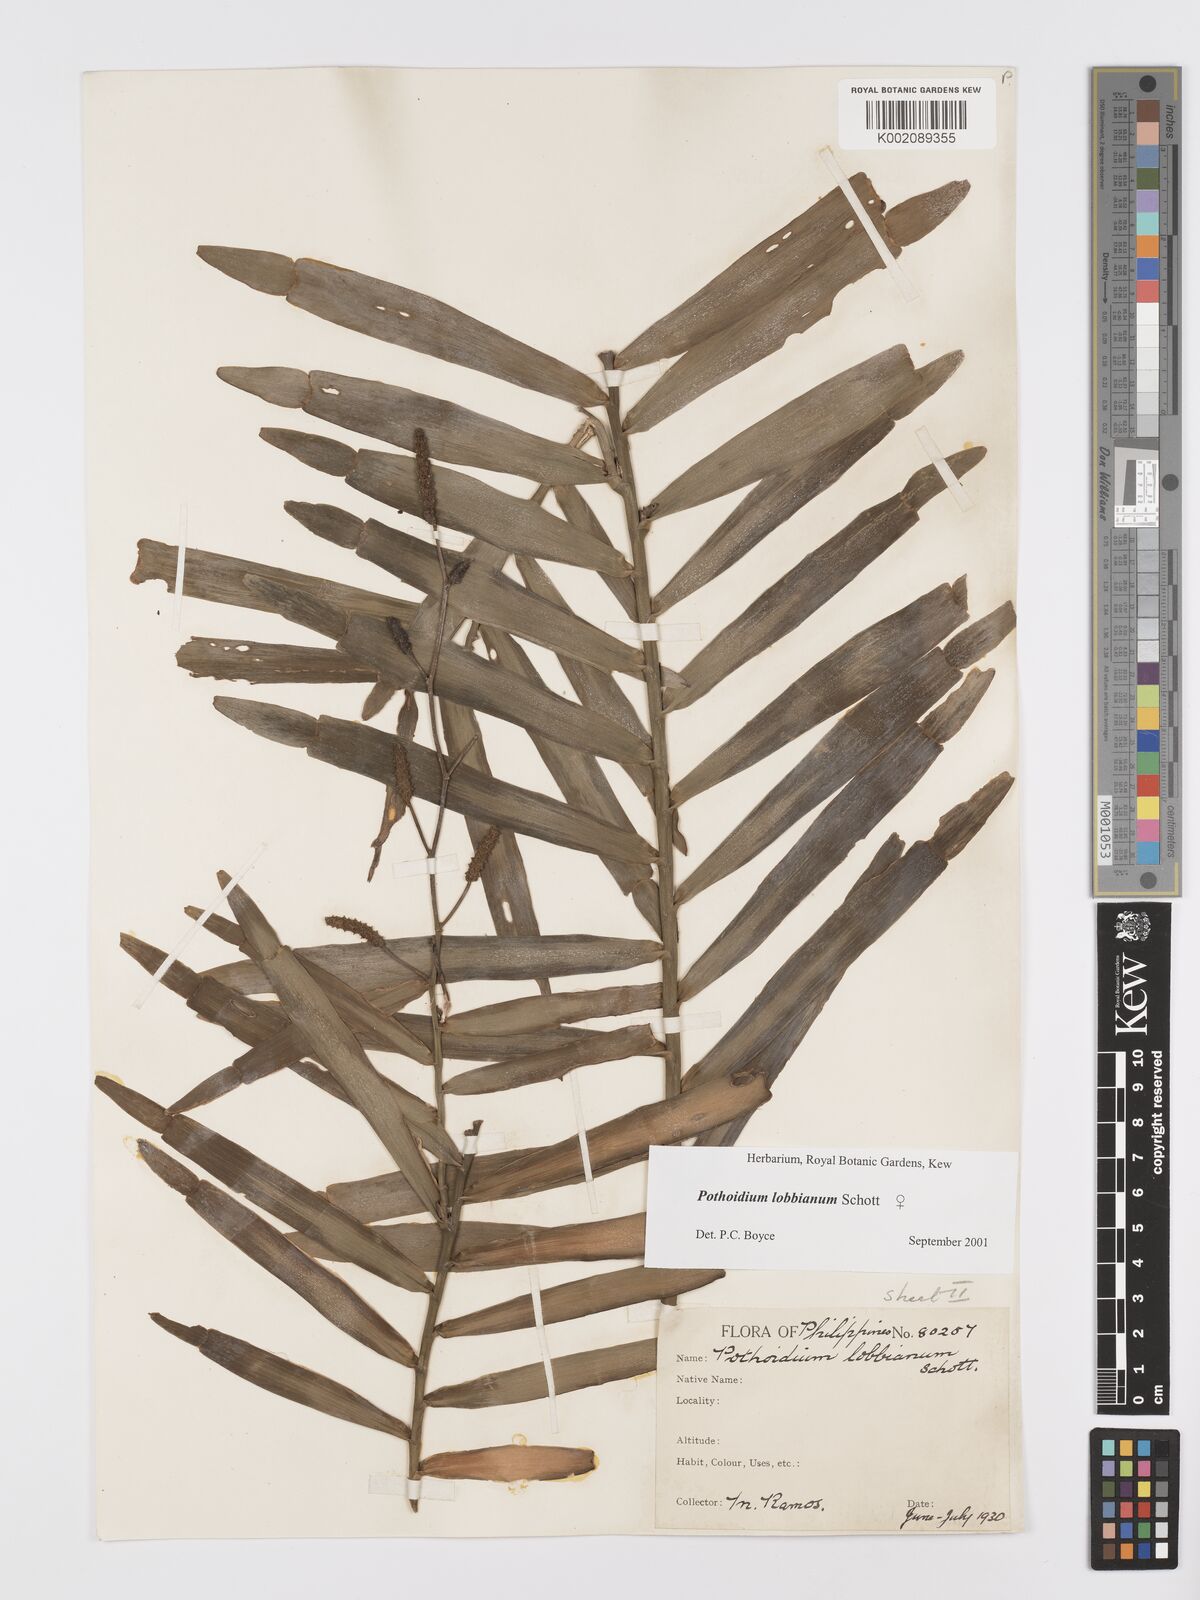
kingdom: Plantae
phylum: Tracheophyta
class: Liliopsida
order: Alismatales
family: Araceae
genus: Pothoidium
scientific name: Pothoidium lobbianum
